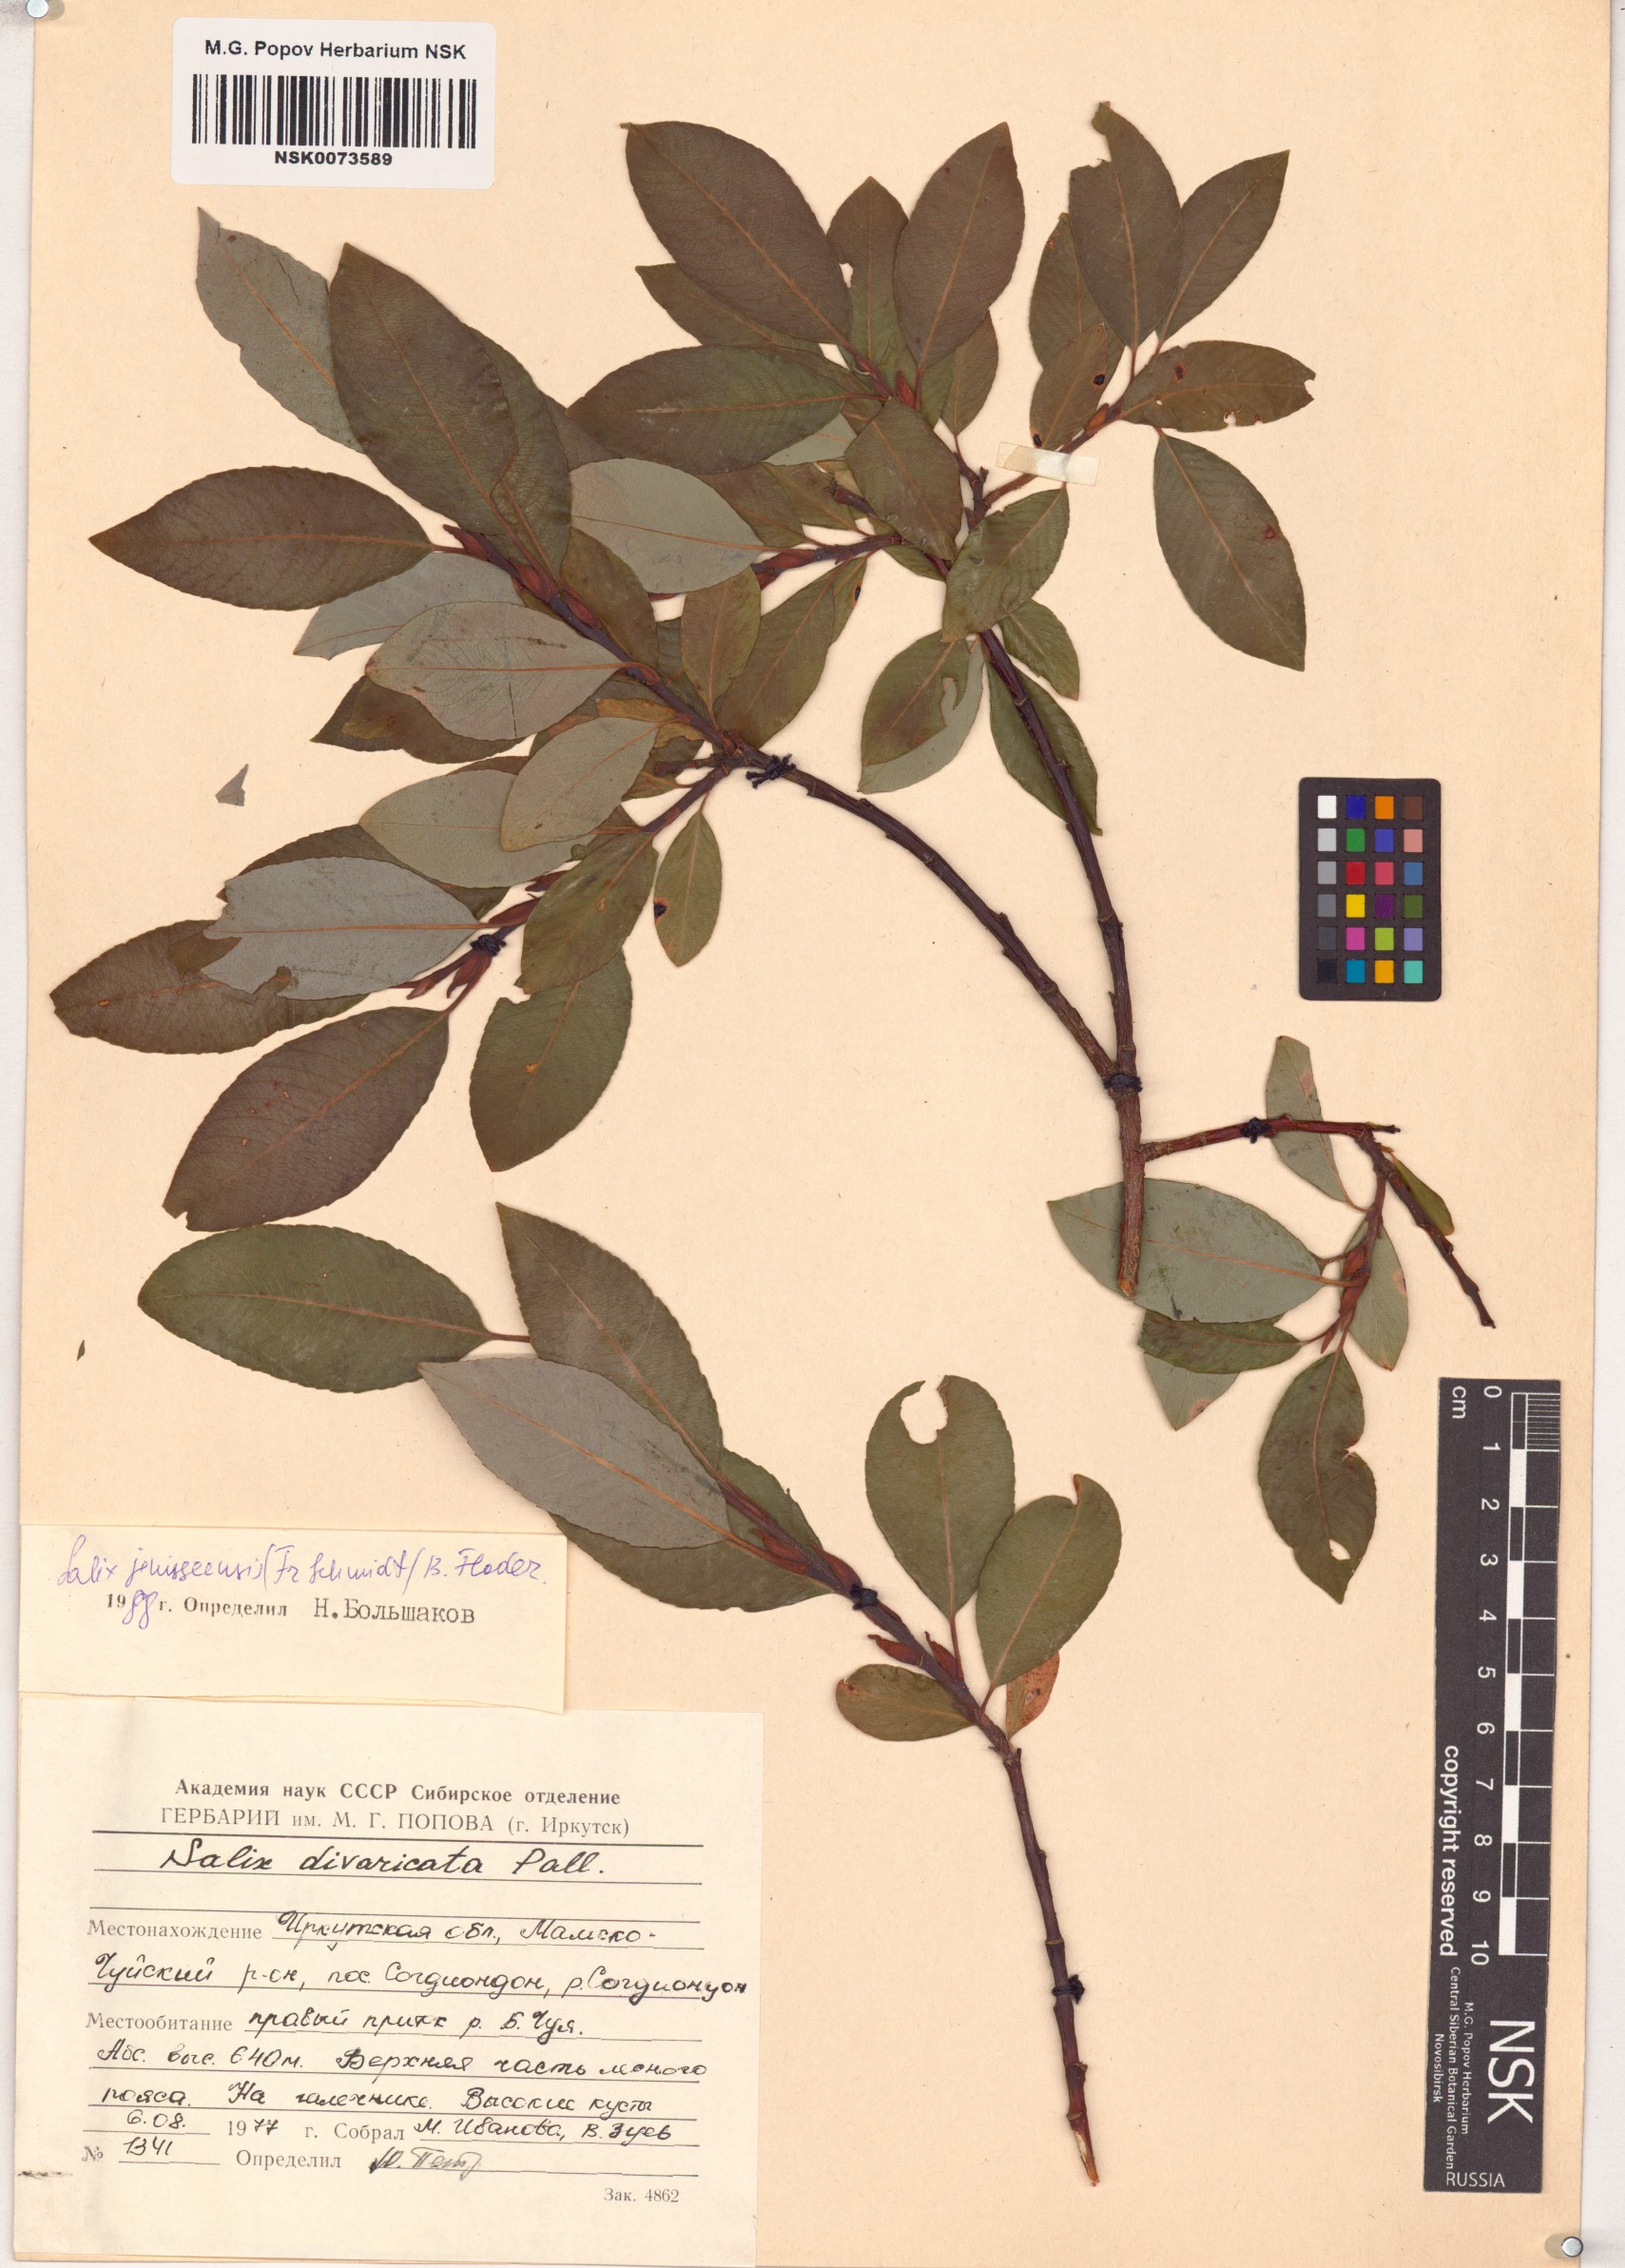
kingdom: Plantae
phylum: Tracheophyta
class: Magnoliopsida
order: Malpighiales
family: Salicaceae
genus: Salix
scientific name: Salix jenisseensis
